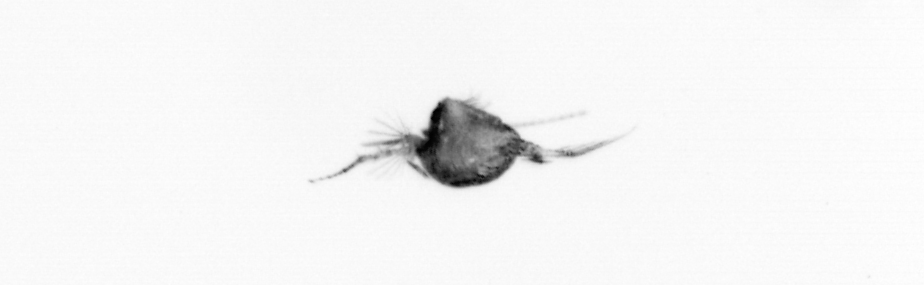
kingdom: Animalia
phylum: Arthropoda
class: Copepoda
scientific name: Copepoda
